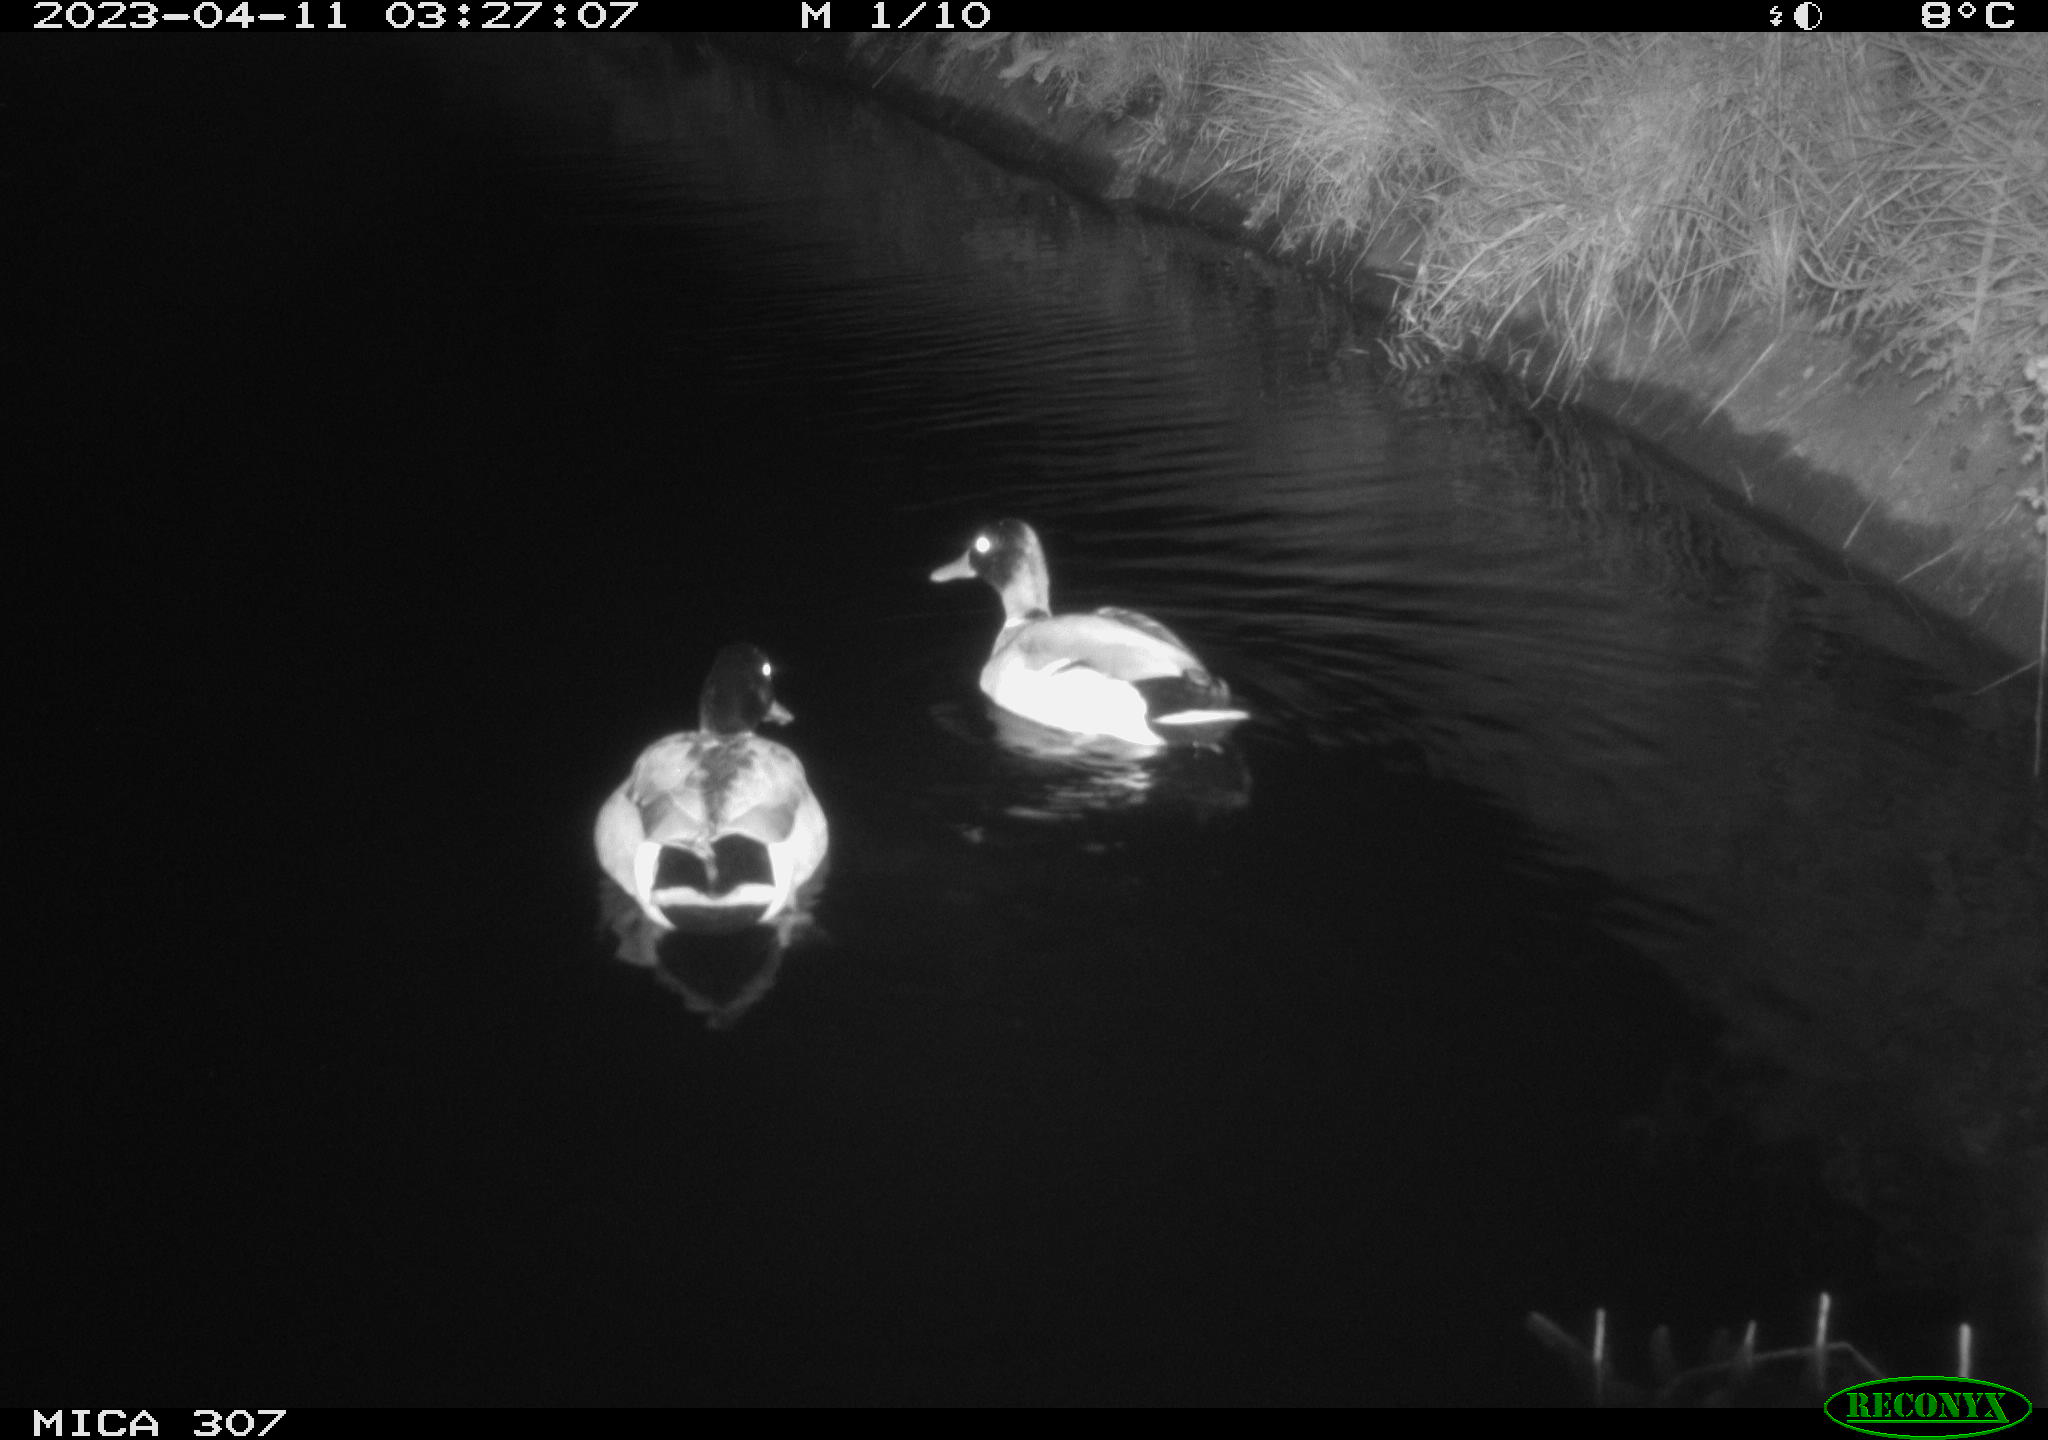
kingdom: Animalia
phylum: Chordata
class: Aves
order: Anseriformes
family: Anatidae
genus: Anas
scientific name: Anas
